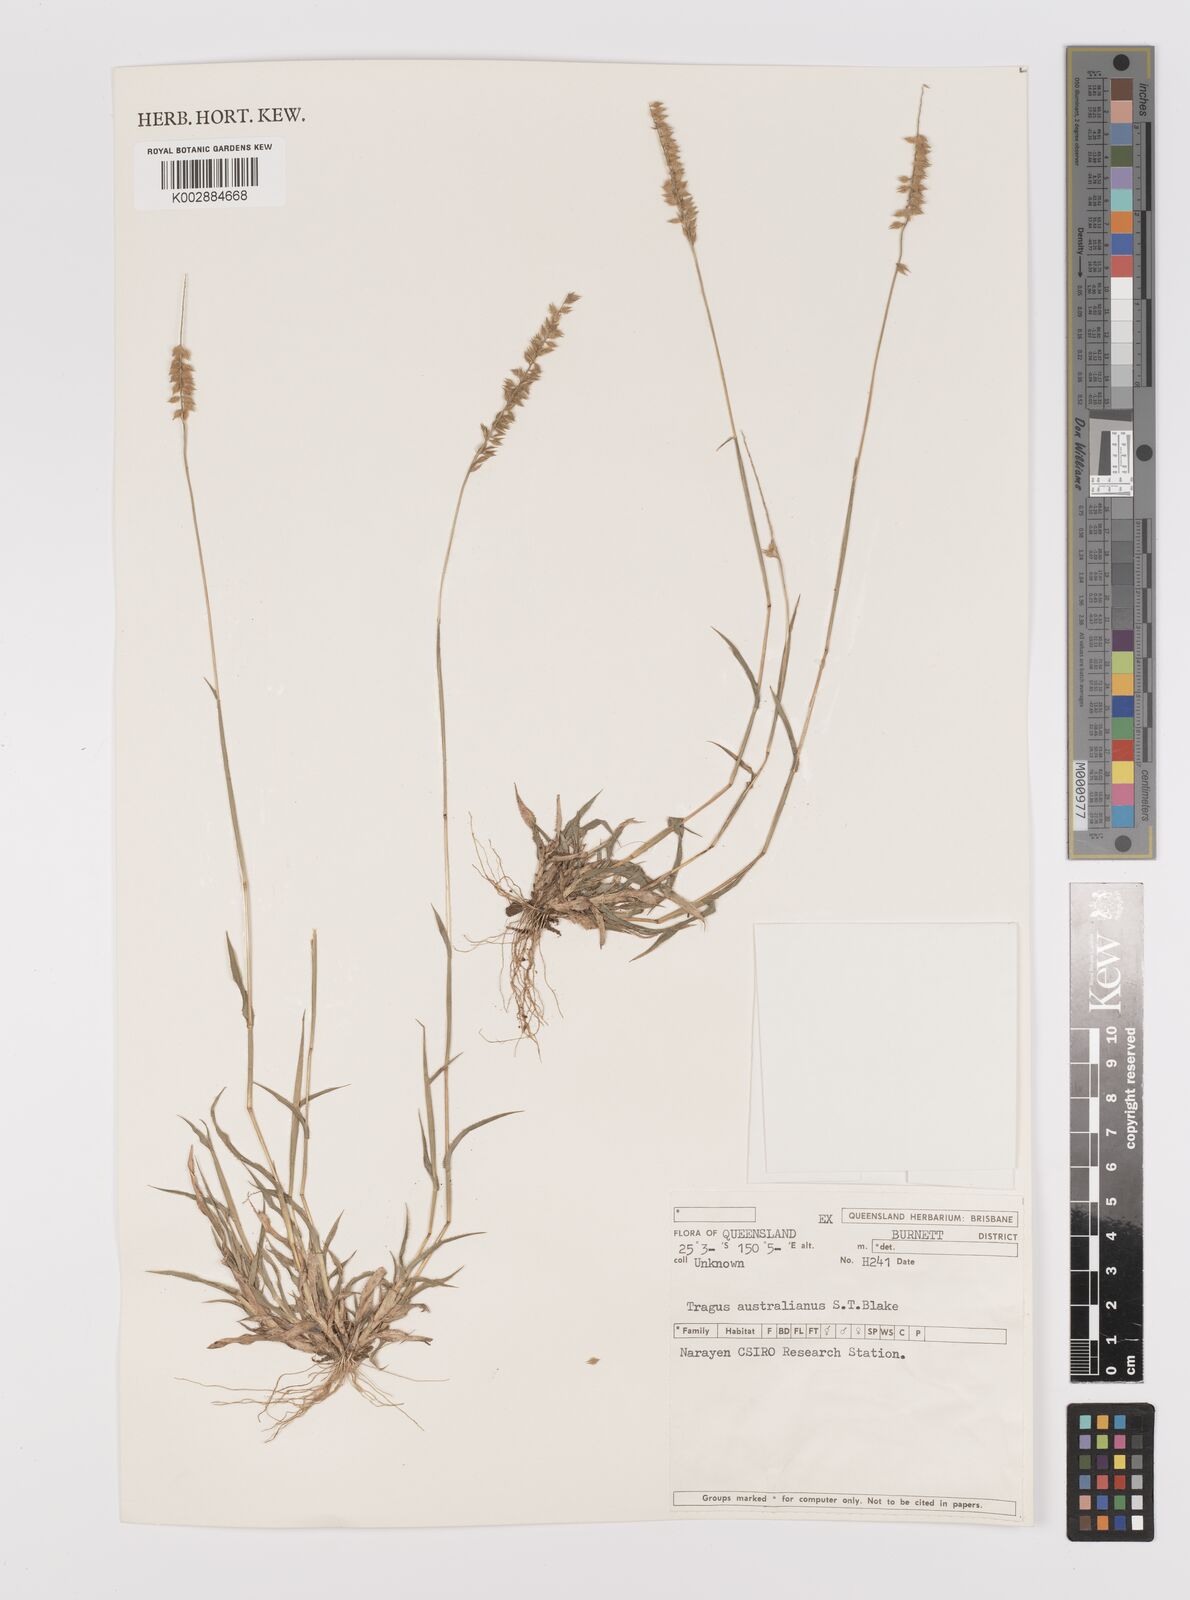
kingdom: Plantae
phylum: Tracheophyta
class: Liliopsida
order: Poales
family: Poaceae
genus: Tragus
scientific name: Tragus australianus
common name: Australian bur-grass
